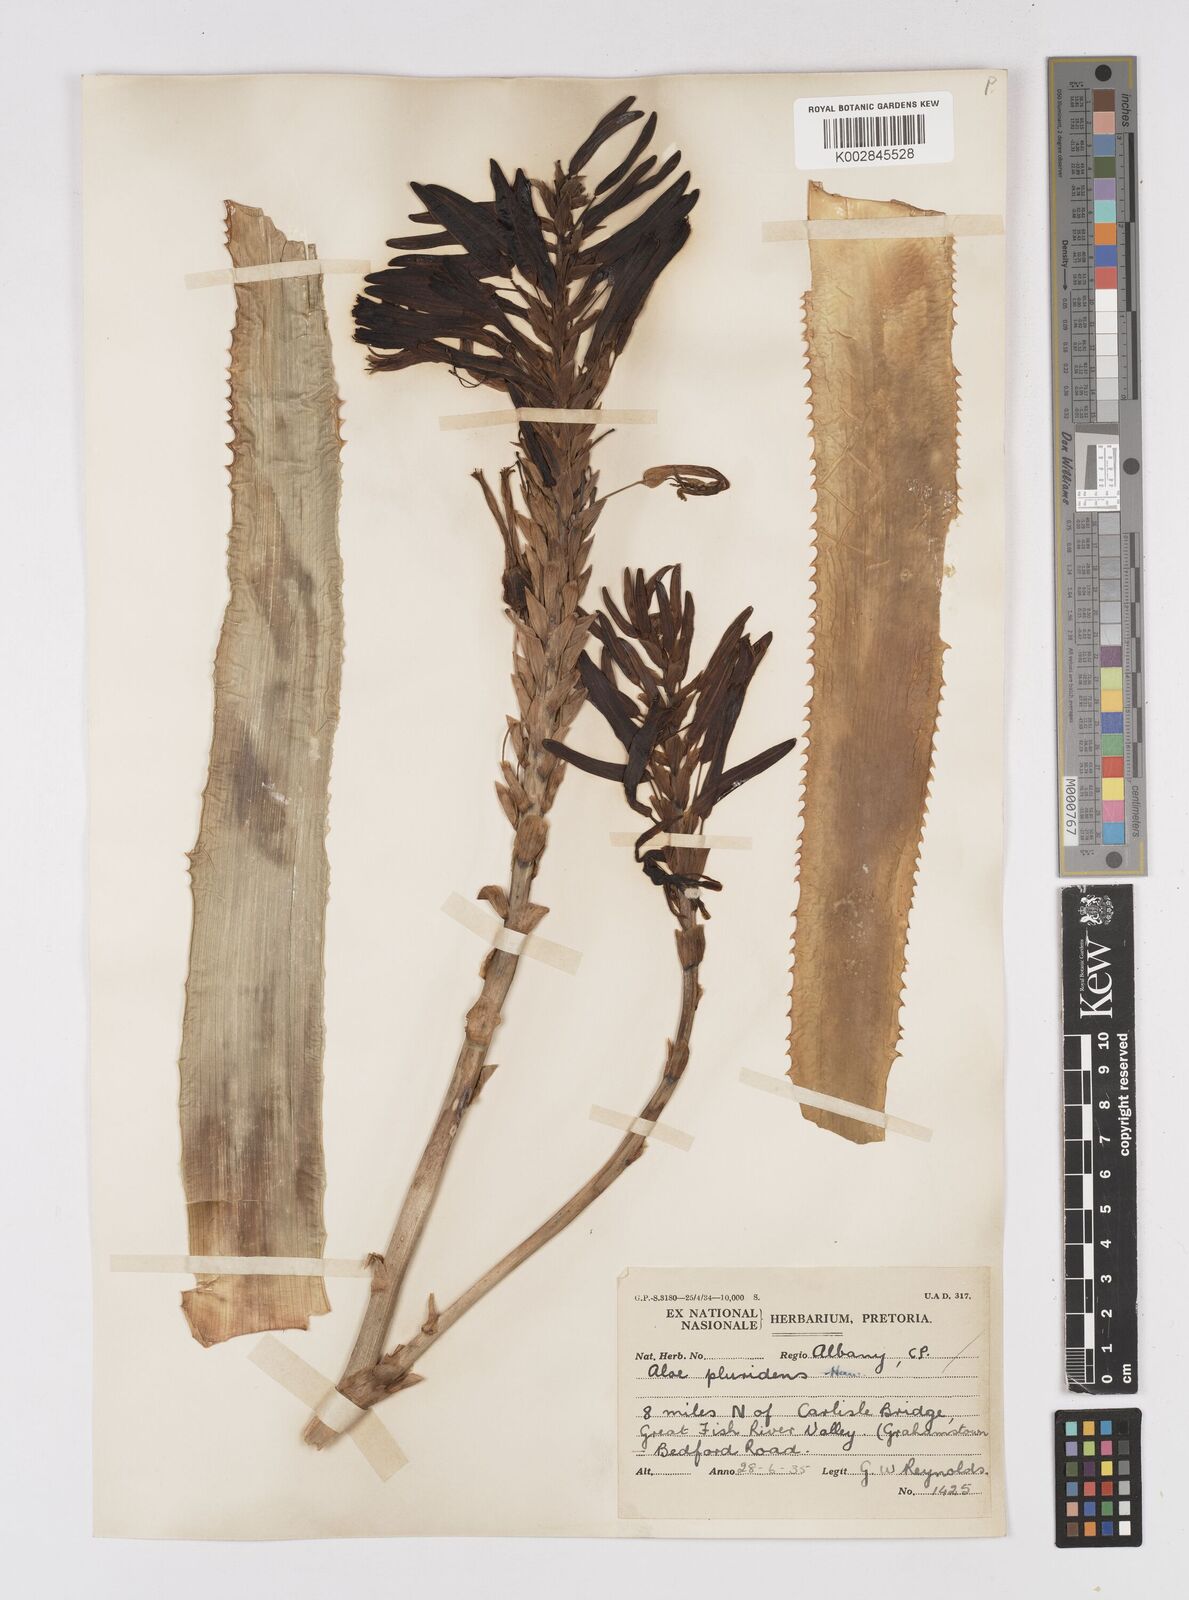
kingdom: Plantae
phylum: Tracheophyta
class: Liliopsida
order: Asparagales
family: Asphodelaceae
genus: Aloe
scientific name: Aloe pluridens
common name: French aloe
